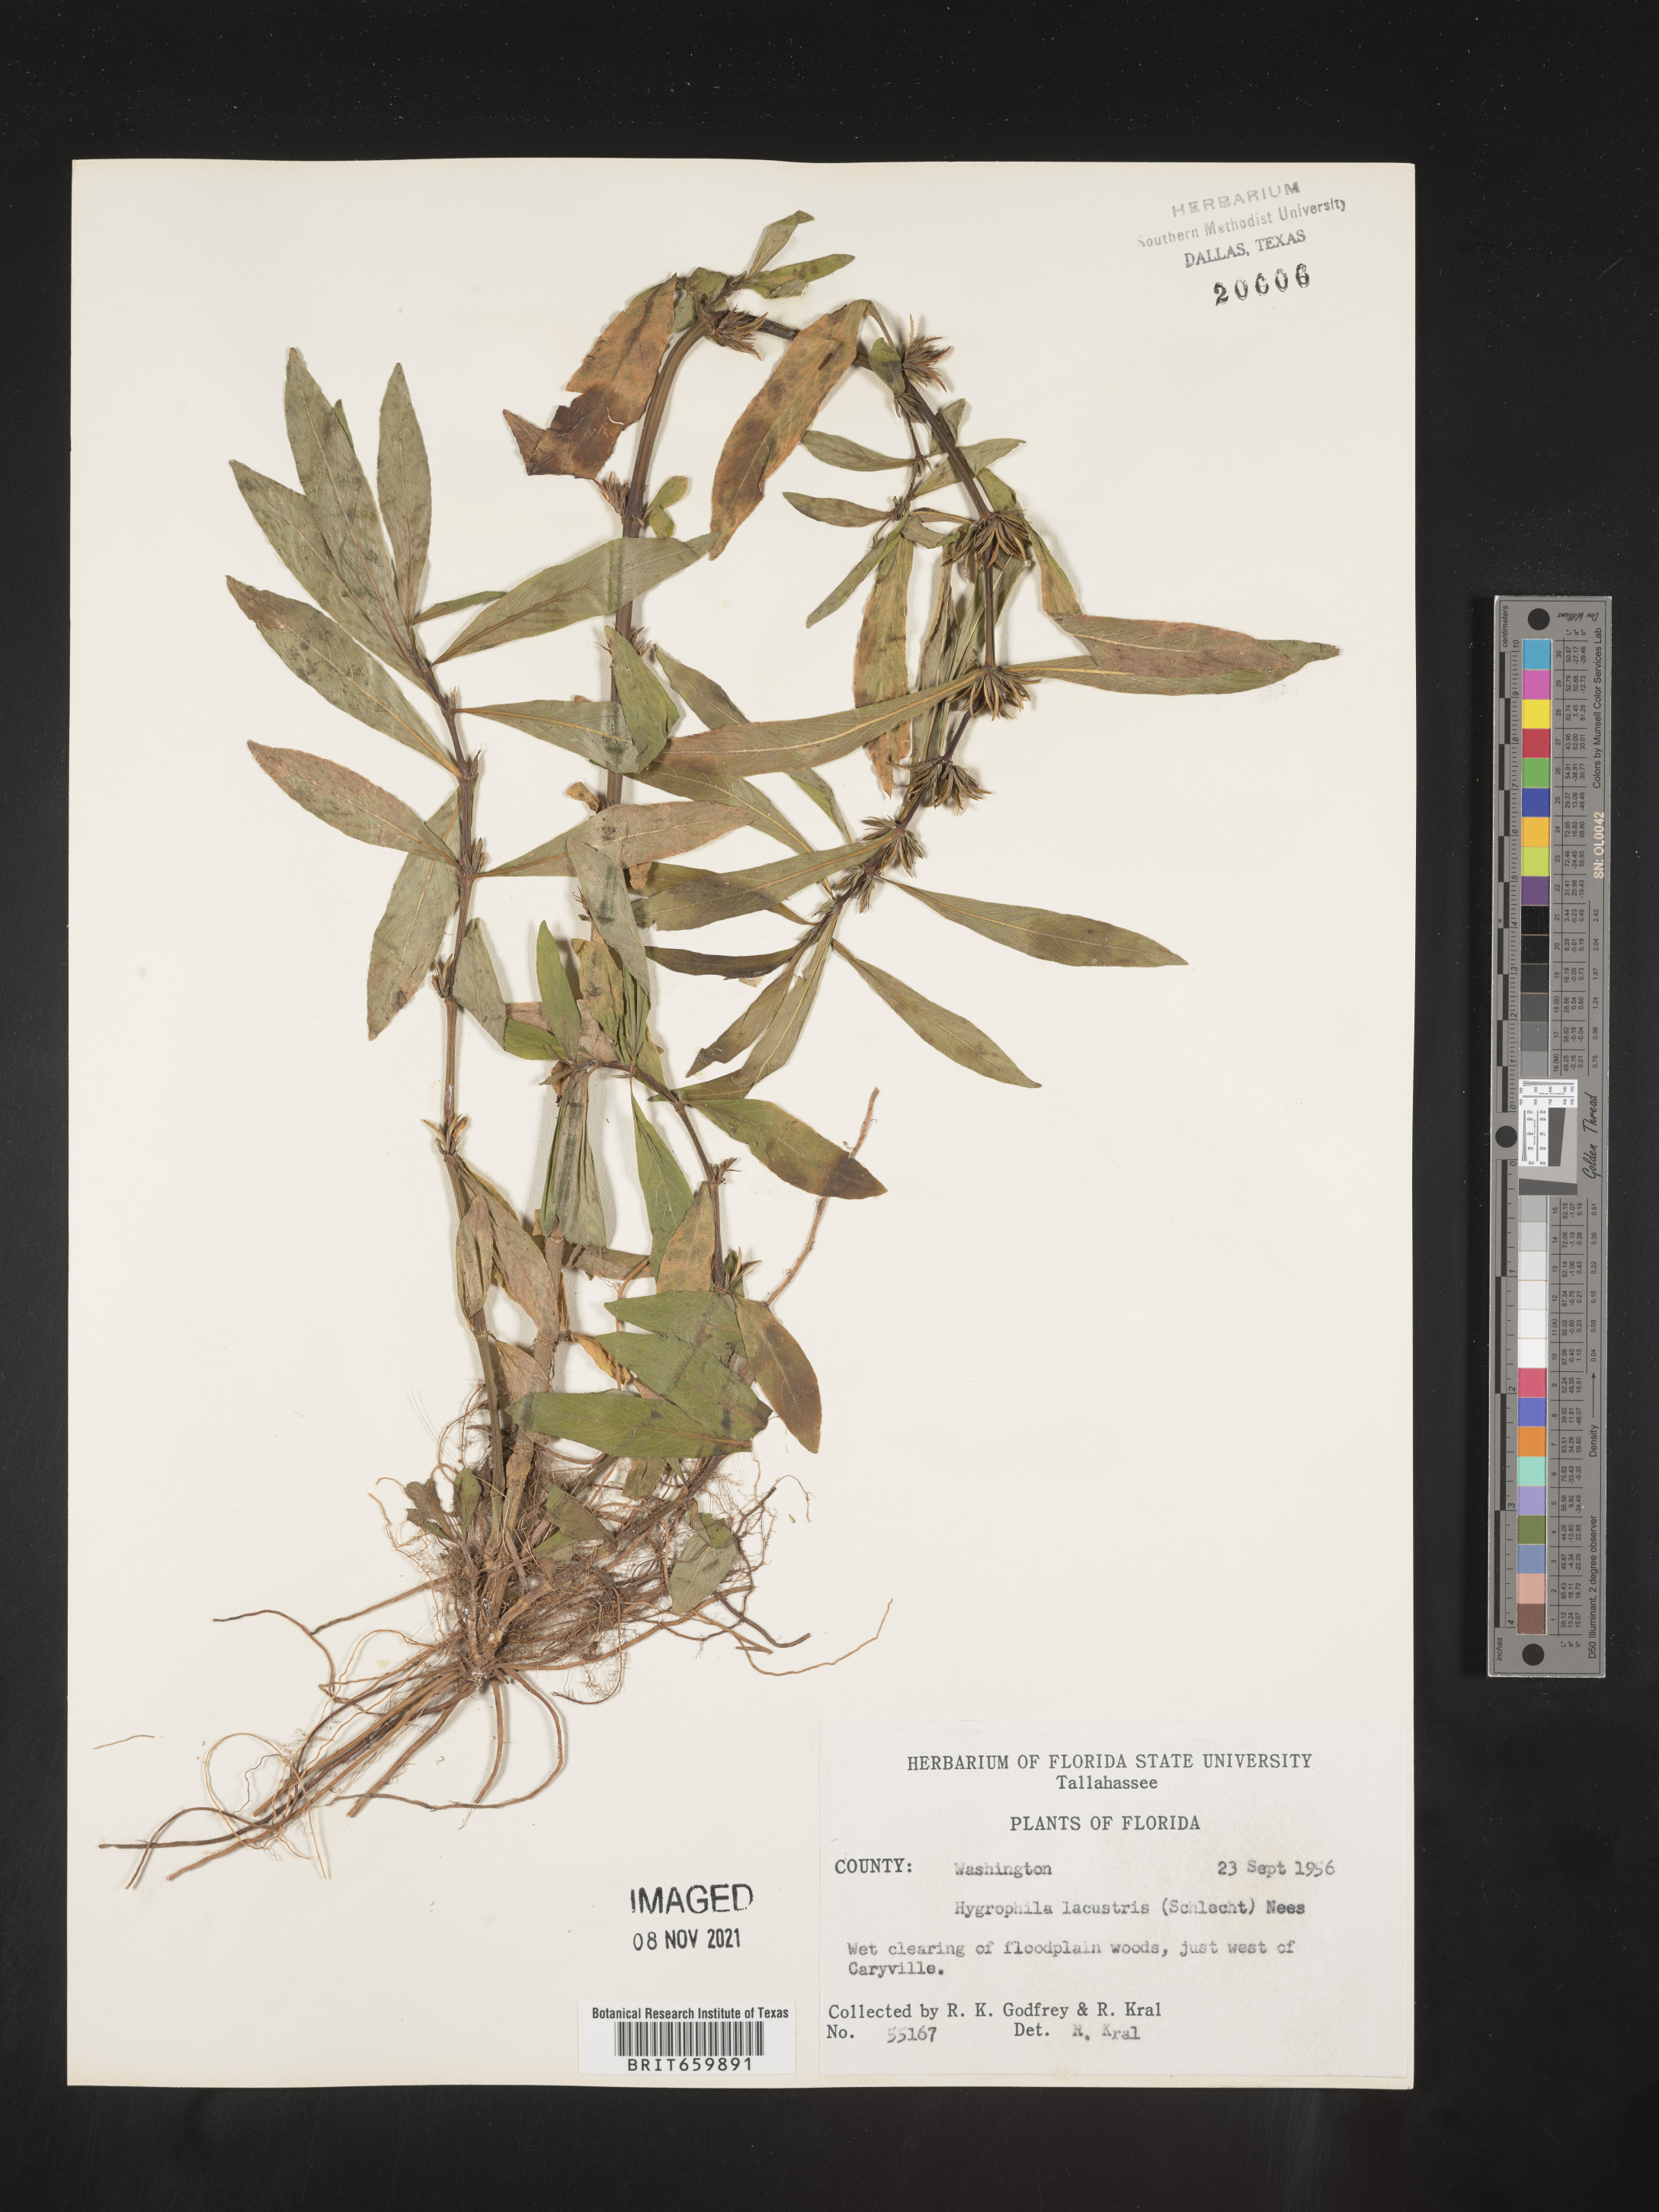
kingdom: Plantae
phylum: Tracheophyta
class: Magnoliopsida
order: Lamiales
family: Acanthaceae
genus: Hygrophila
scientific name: Hygrophila costata
